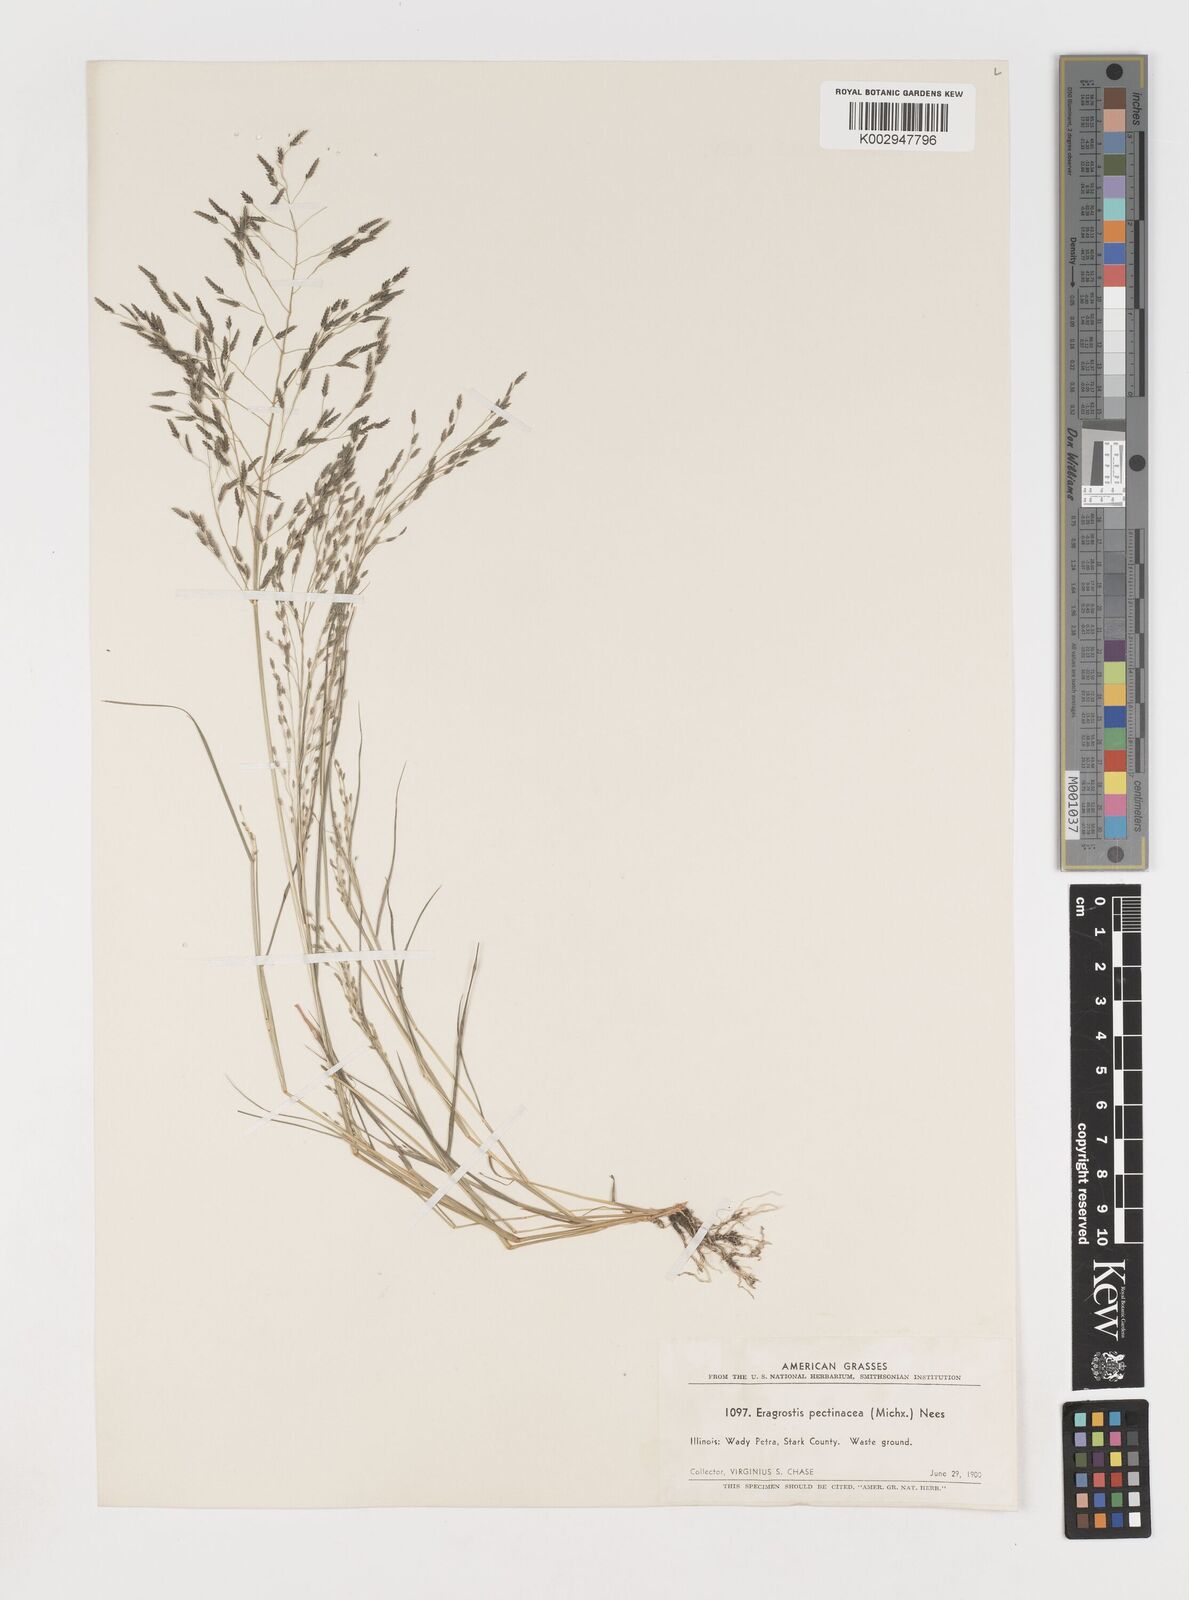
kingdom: Plantae
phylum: Tracheophyta
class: Liliopsida
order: Poales
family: Poaceae
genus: Eragrostis
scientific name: Eragrostis pectinacea
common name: Tufted lovegrass
